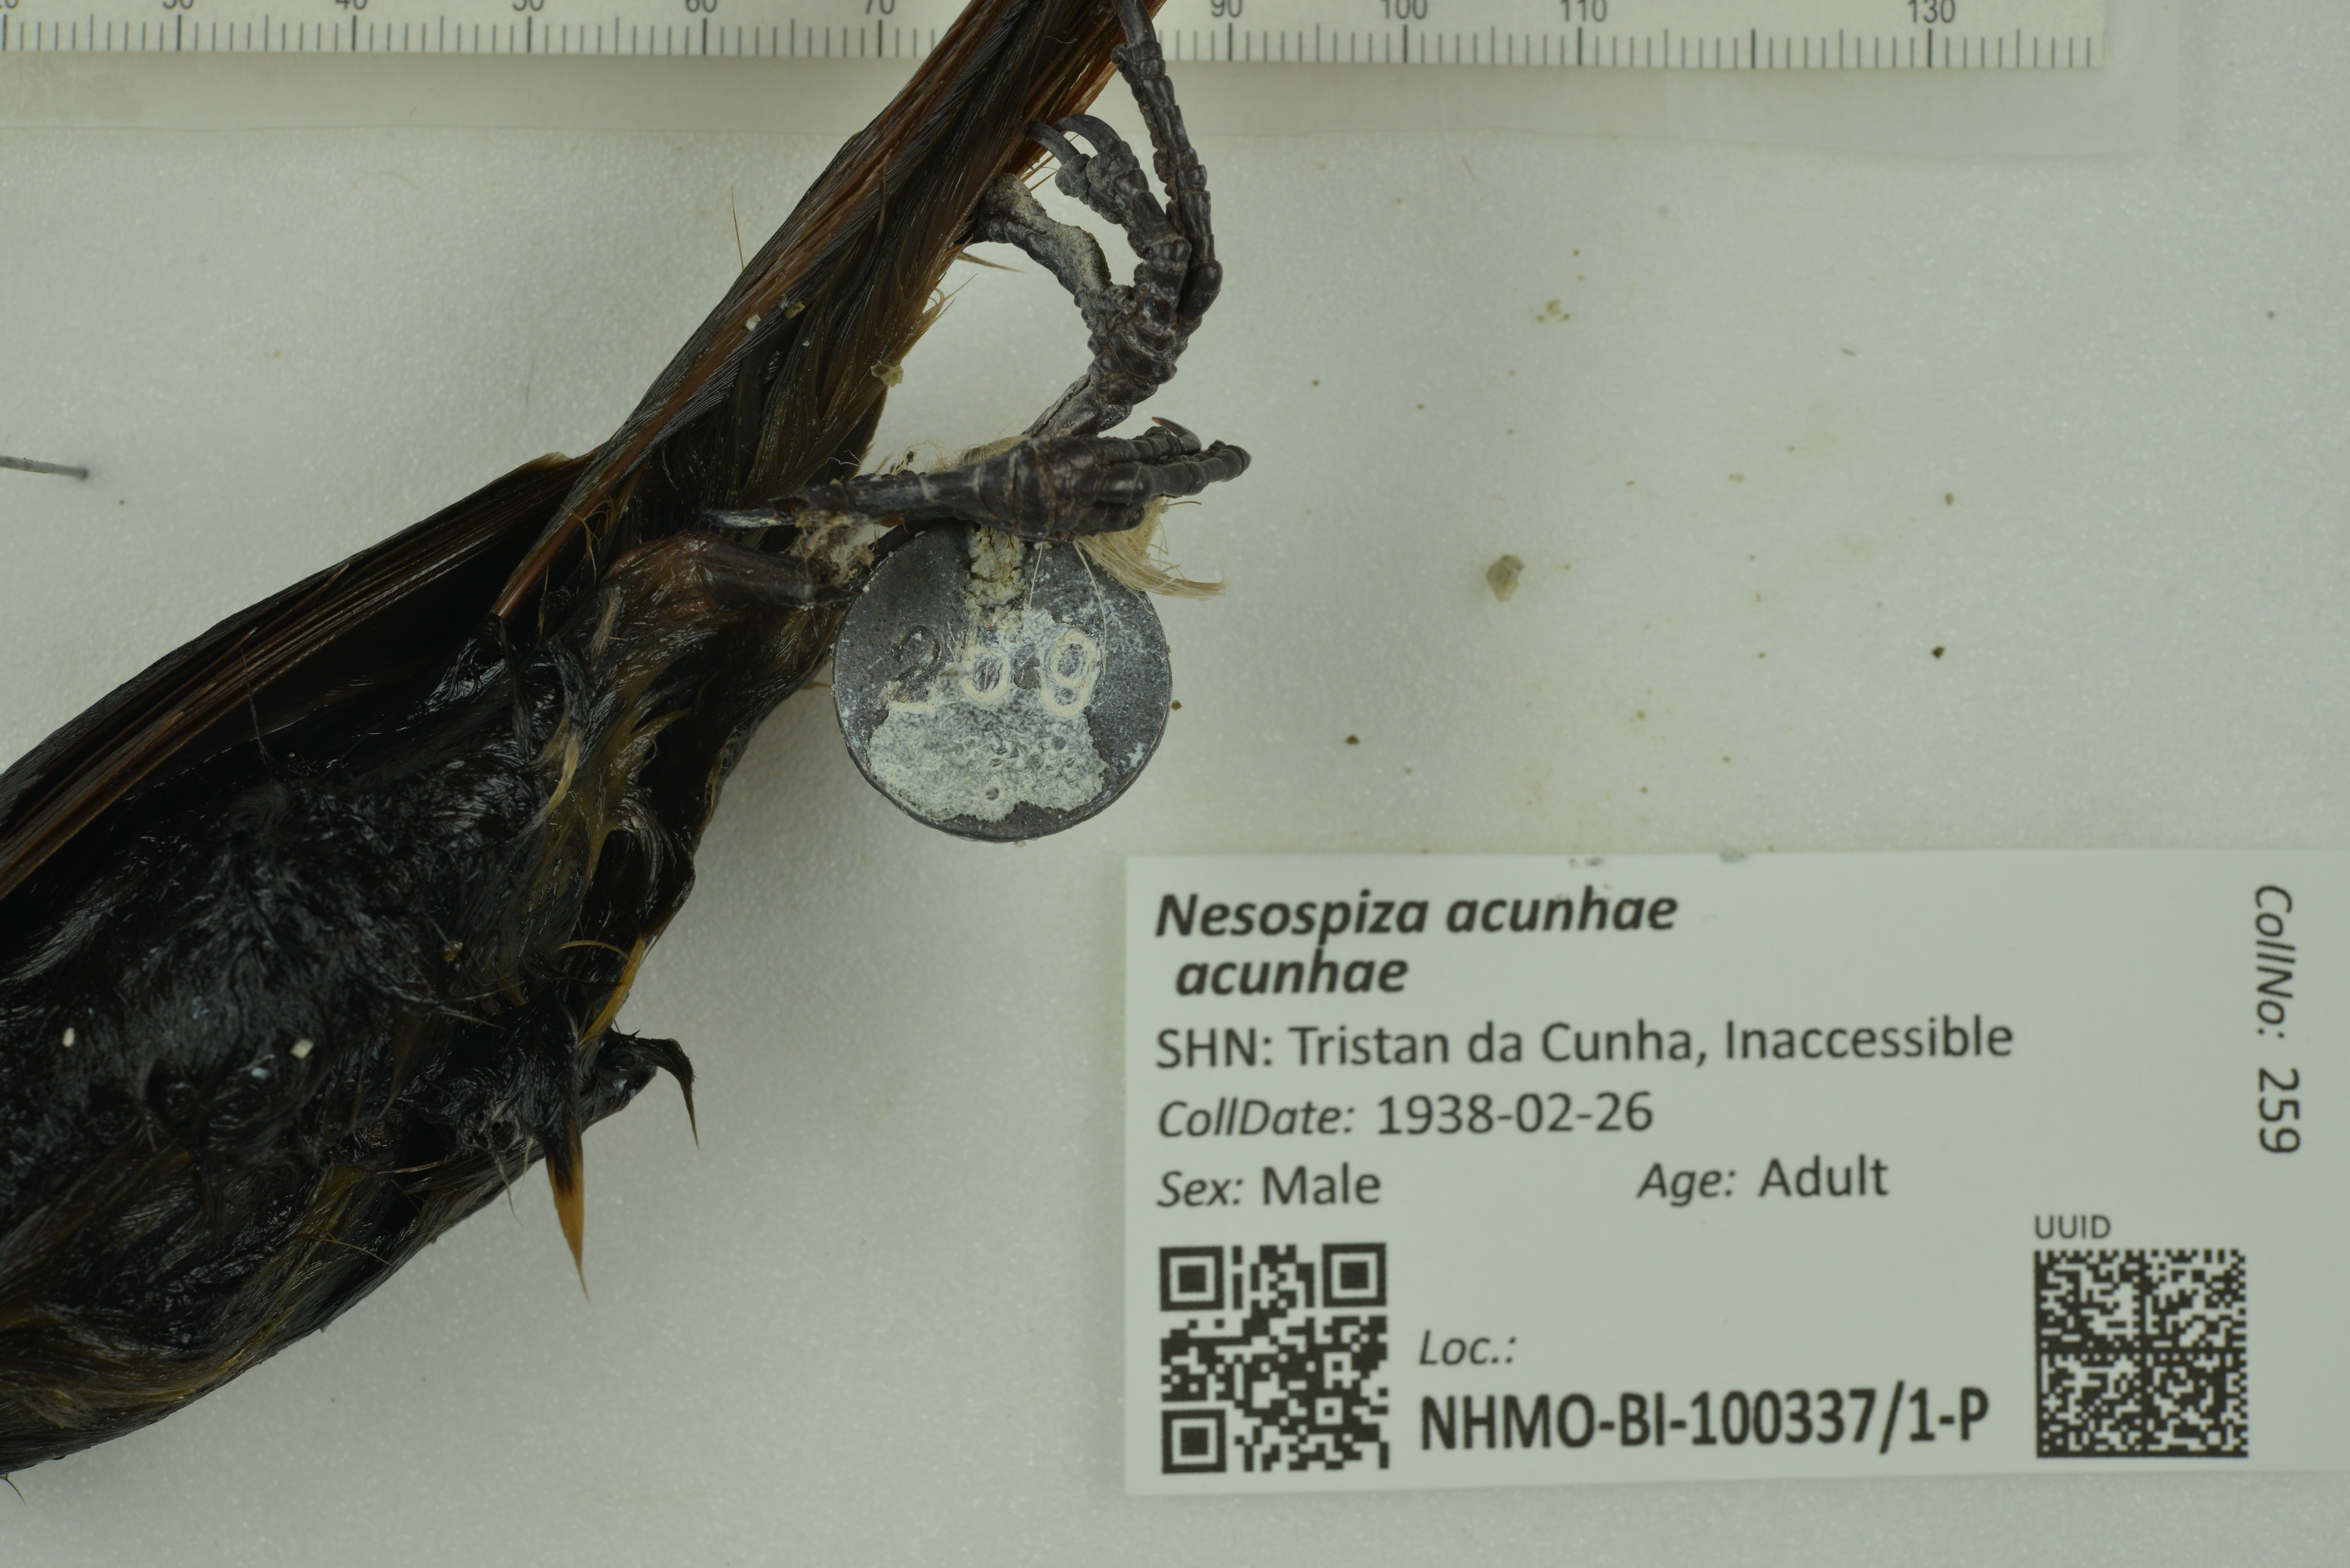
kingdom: Animalia
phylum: Chordata
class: Aves
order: Passeriformes
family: Thraupidae
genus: Nesospiza
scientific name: Nesospiza acunhae
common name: Inaccessible island finch
